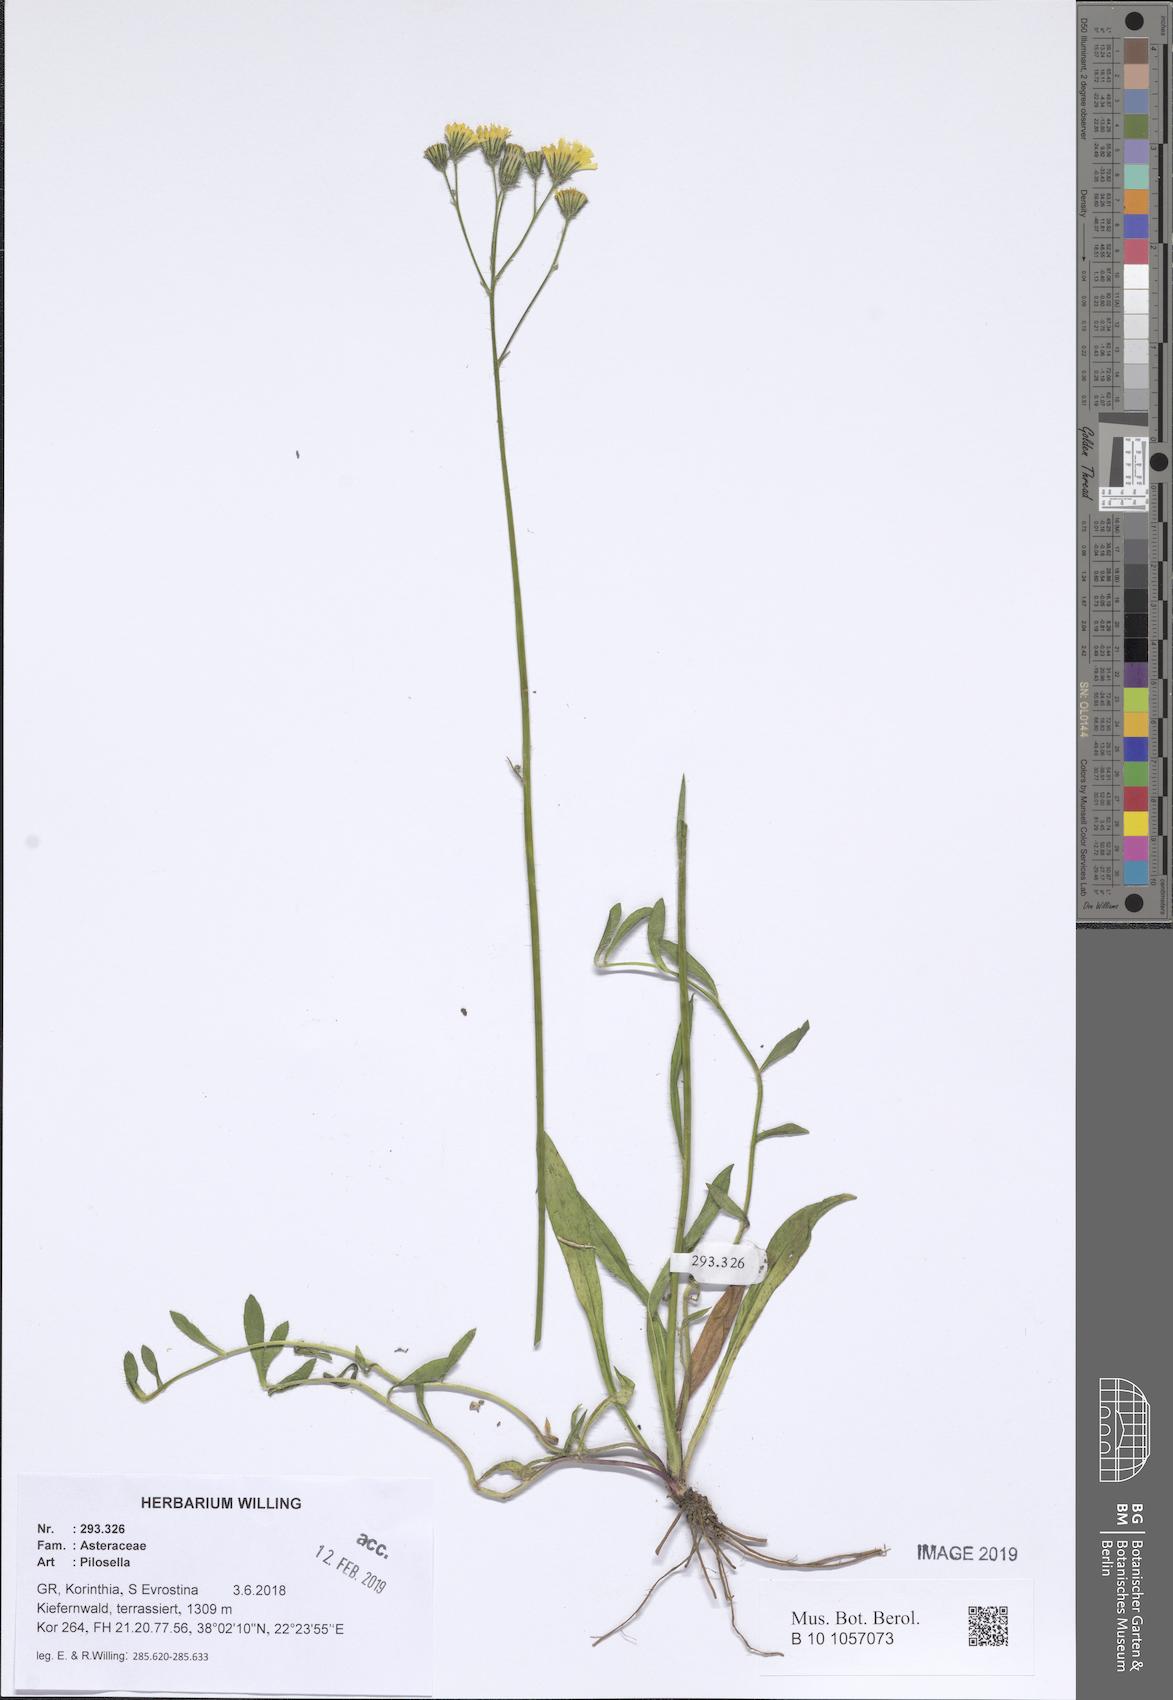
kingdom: Plantae
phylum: Tracheophyta
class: Magnoliopsida
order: Asterales
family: Asteraceae
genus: Pilosella
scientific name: Pilosella
